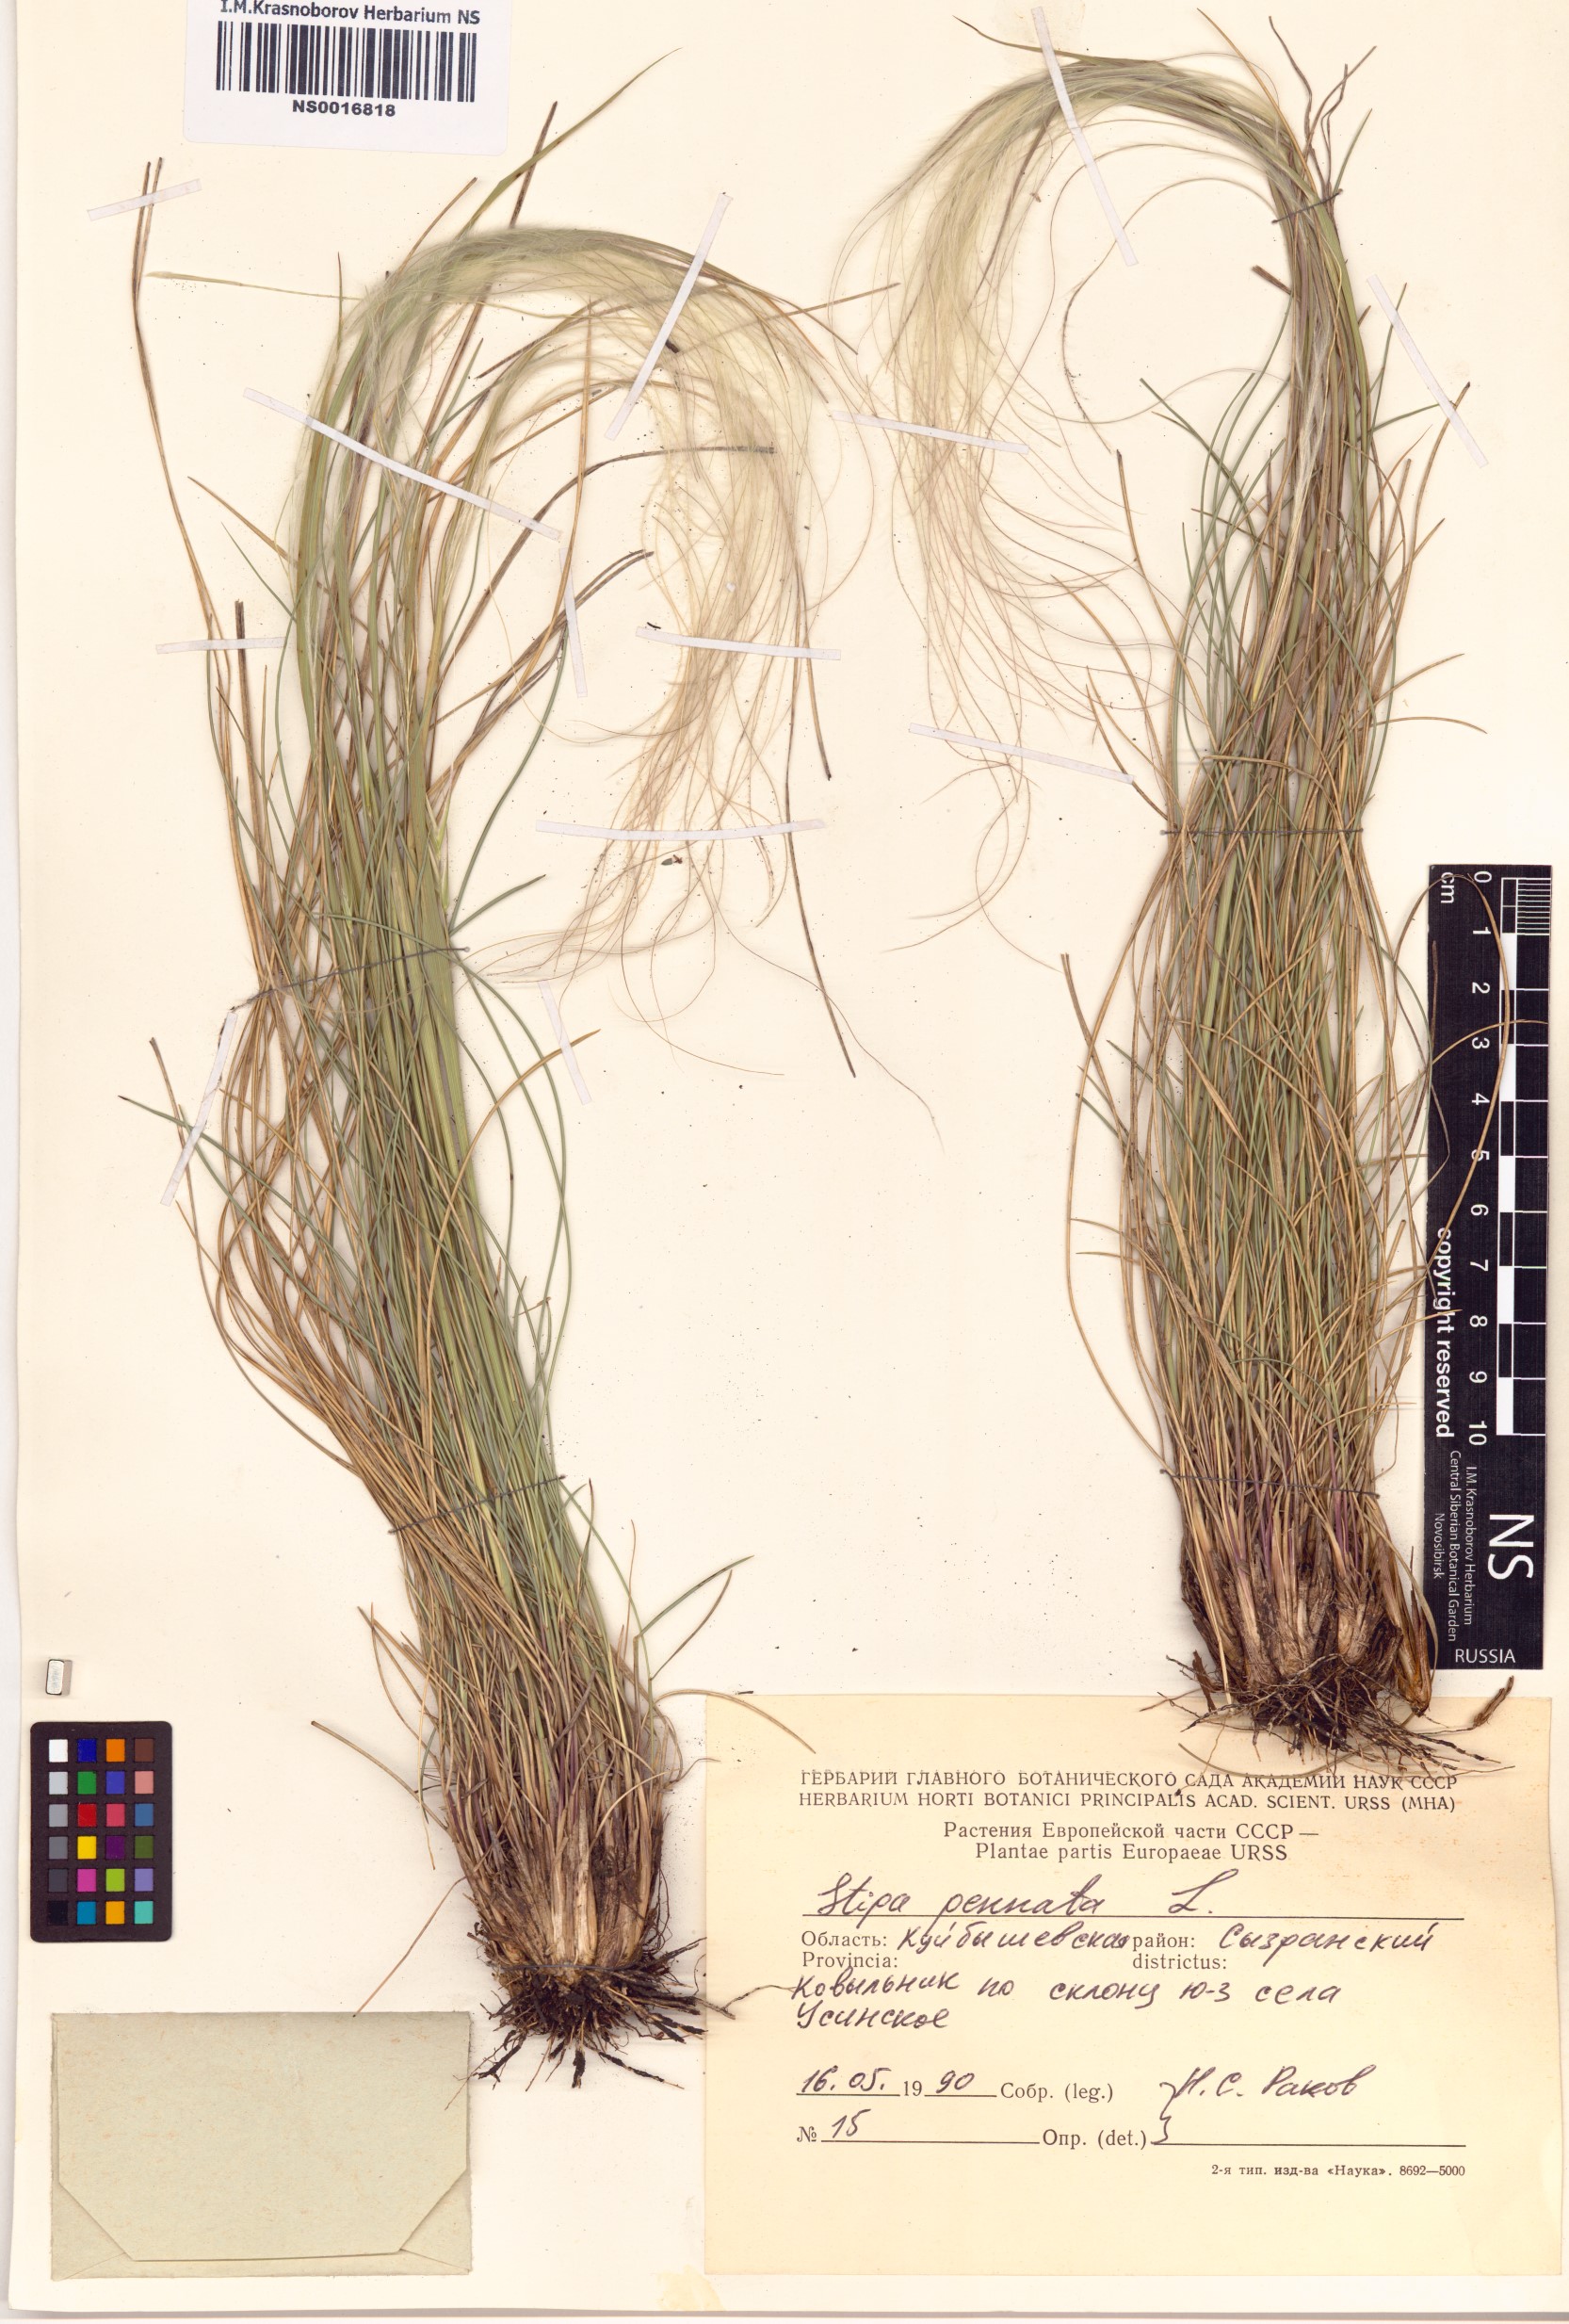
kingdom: Plantae
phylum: Tracheophyta
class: Liliopsida
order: Poales
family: Poaceae
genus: Stipa
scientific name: Stipa pennata
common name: European feather grass
